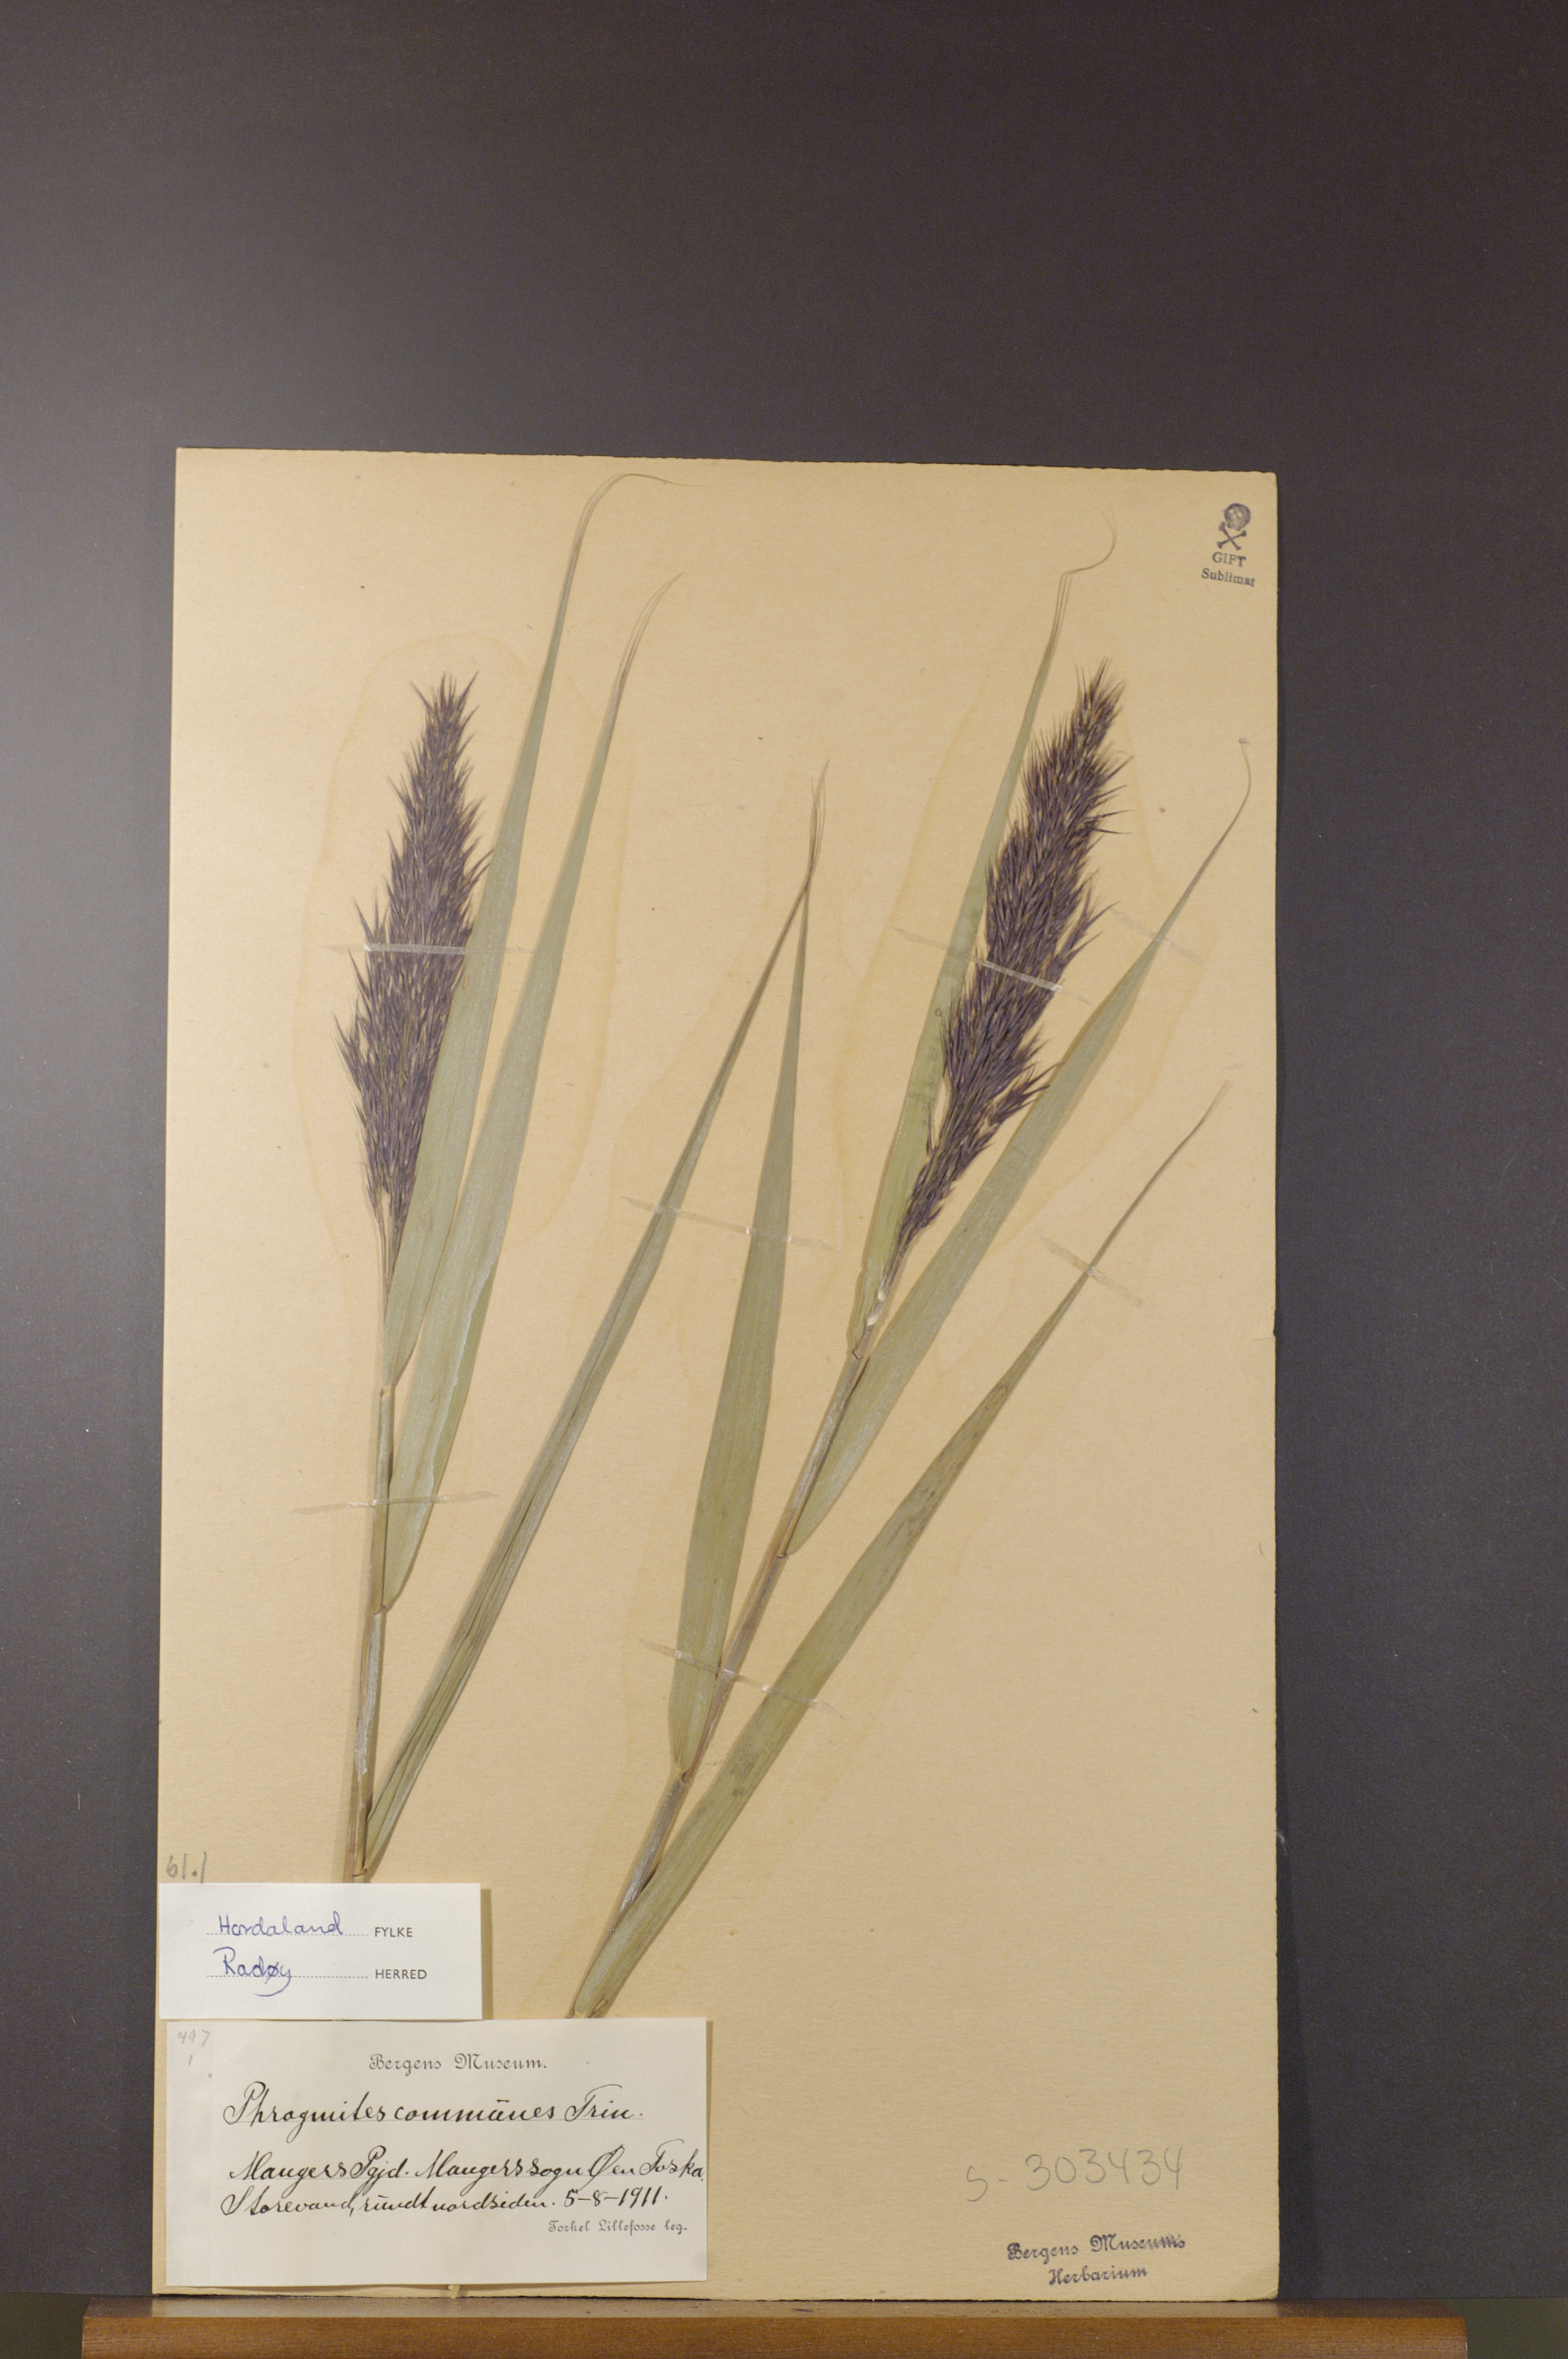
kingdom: Plantae
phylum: Tracheophyta
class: Liliopsida
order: Poales
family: Poaceae
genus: Phragmites
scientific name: Phragmites australis
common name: Common reed
